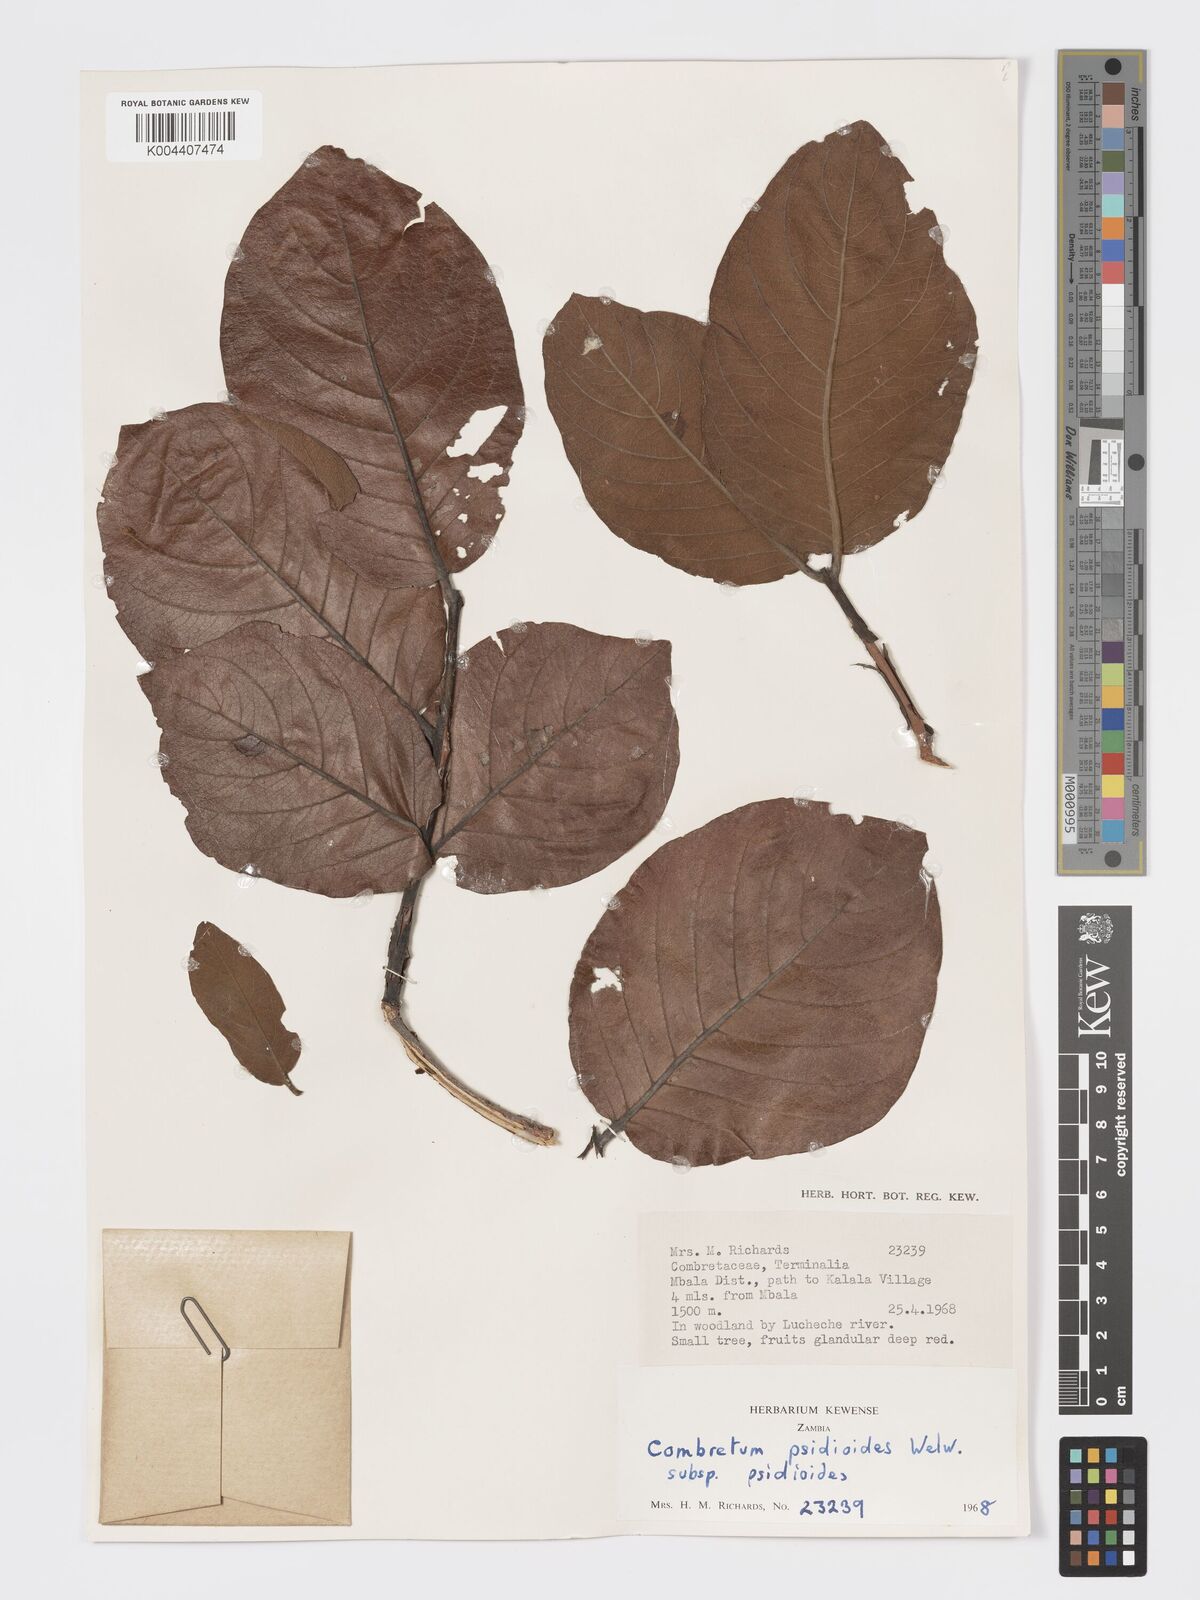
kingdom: Plantae
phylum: Tracheophyta
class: Magnoliopsida
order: Myrtales
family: Combretaceae
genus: Combretum
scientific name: Combretum psidioides
